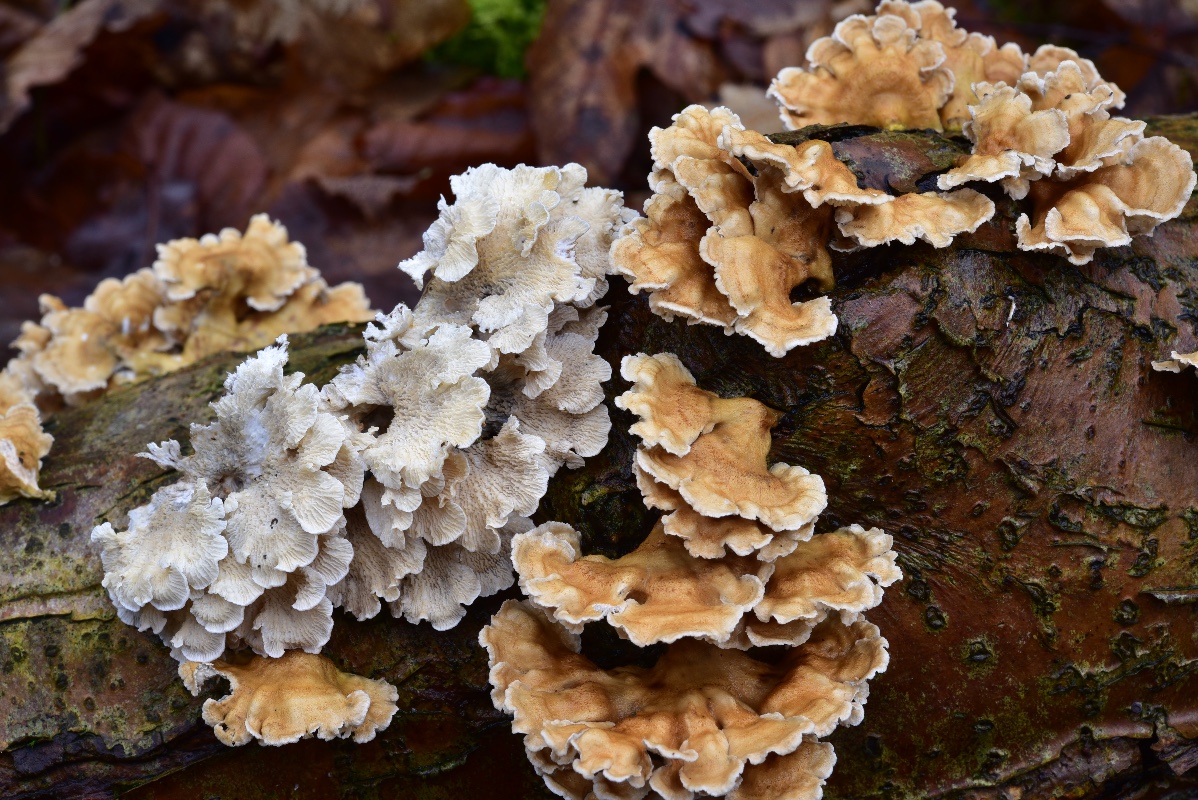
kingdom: Fungi
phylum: Basidiomycota
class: Agaricomycetes
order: Amylocorticiales
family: Amylocorticiaceae
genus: Plicaturopsis
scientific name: Plicaturopsis crispa
